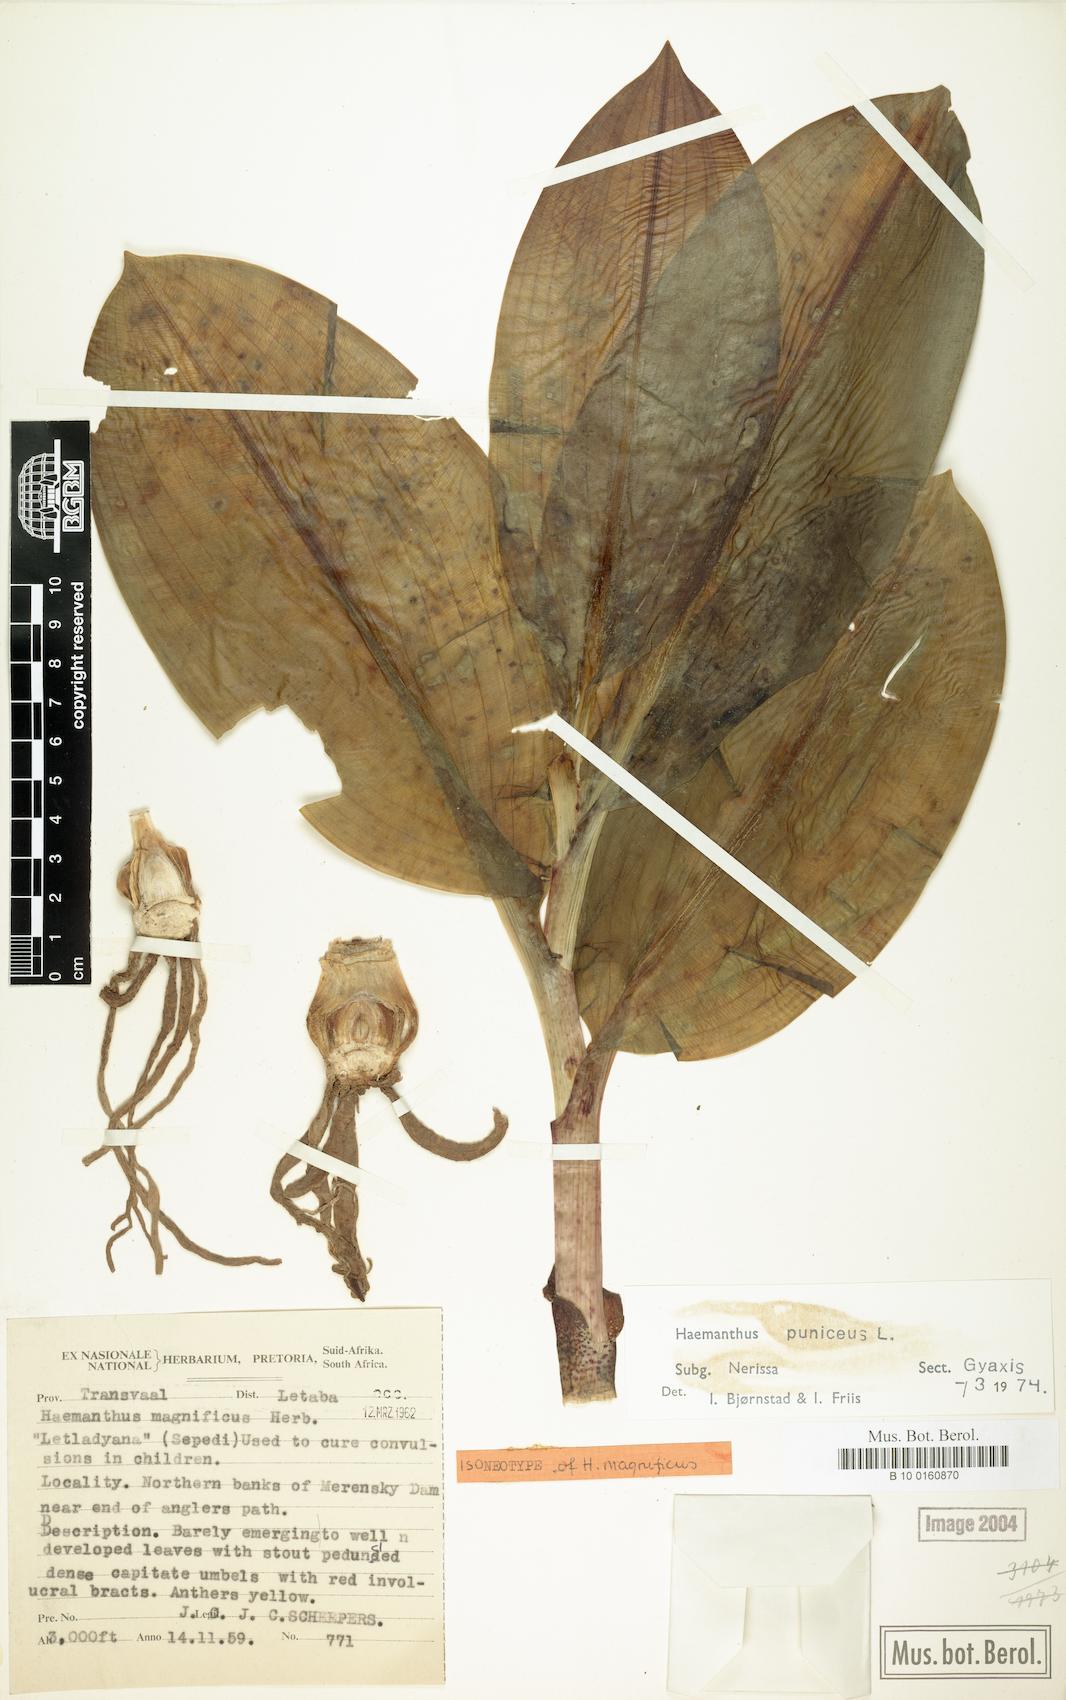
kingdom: Plantae
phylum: Tracheophyta
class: Liliopsida
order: Asparagales
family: Amaryllidaceae
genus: Scadoxus
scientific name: Scadoxus puniceus
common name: Royal-paintbrush
